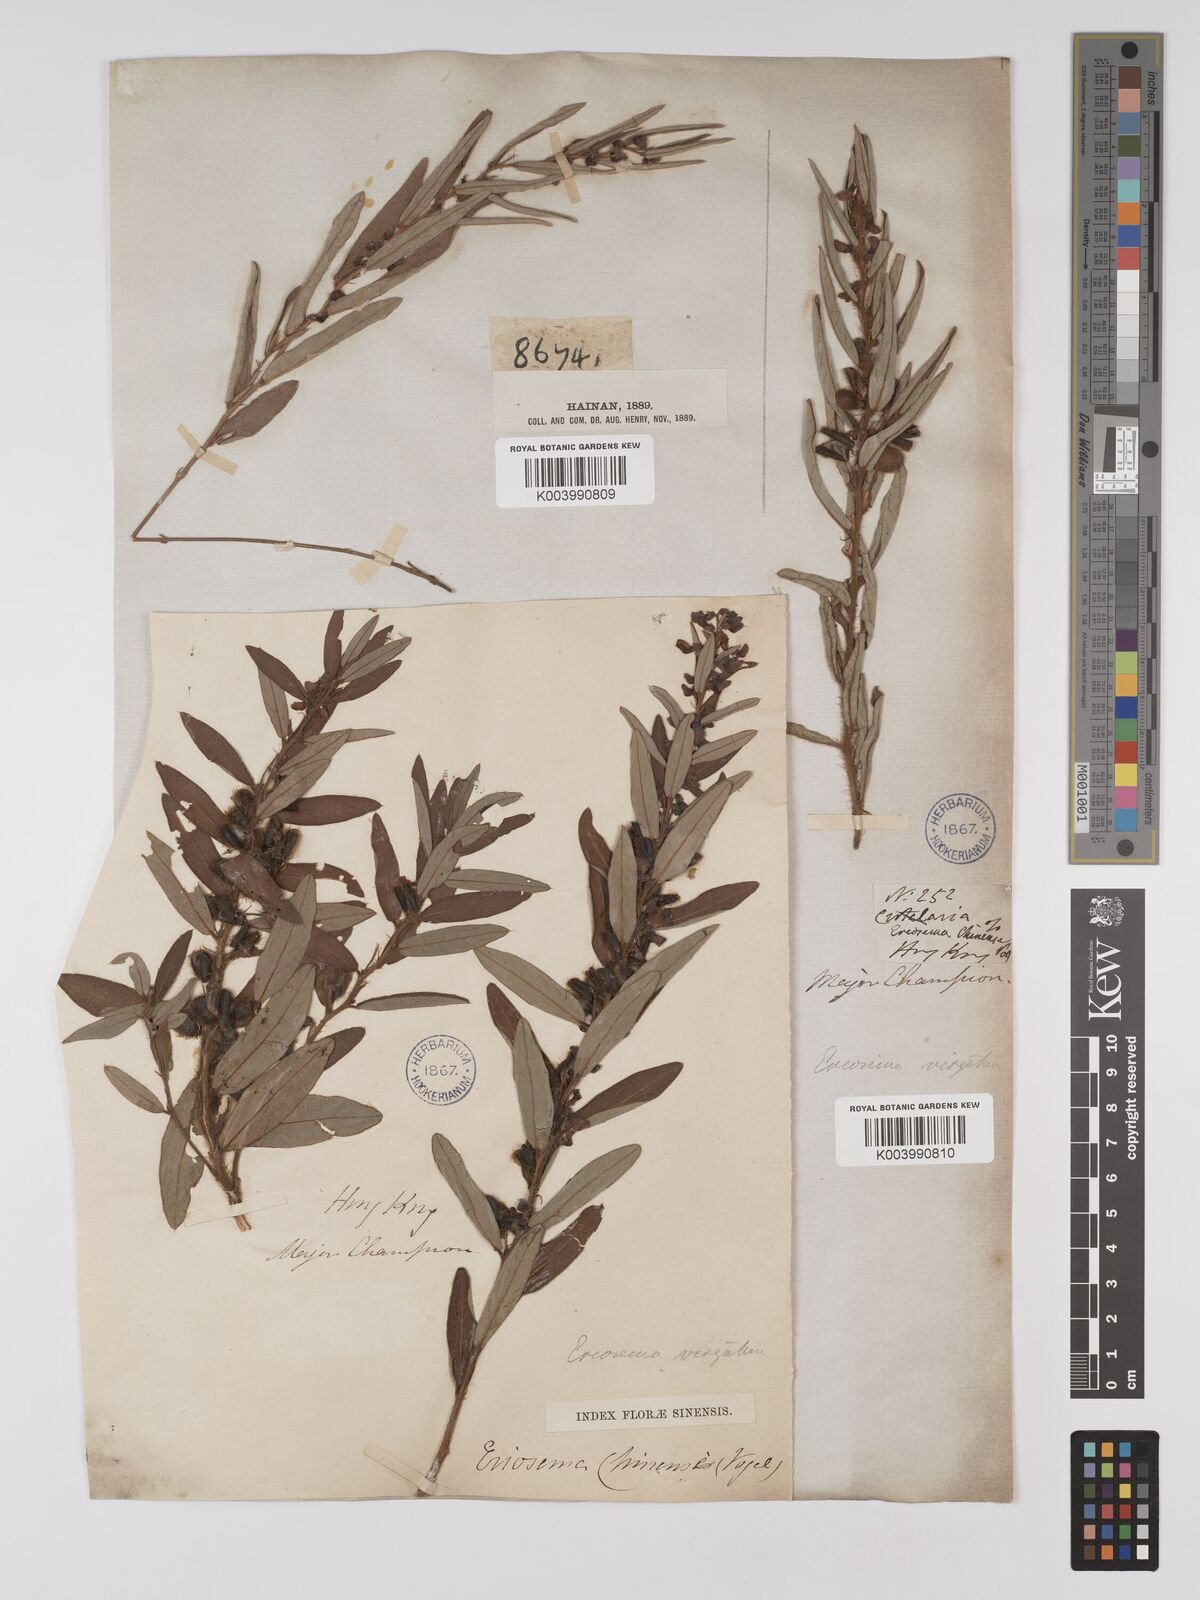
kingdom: Plantae
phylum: Tracheophyta
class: Magnoliopsida
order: Fabales
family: Fabaceae
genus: Eriosema
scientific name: Eriosema chinense
